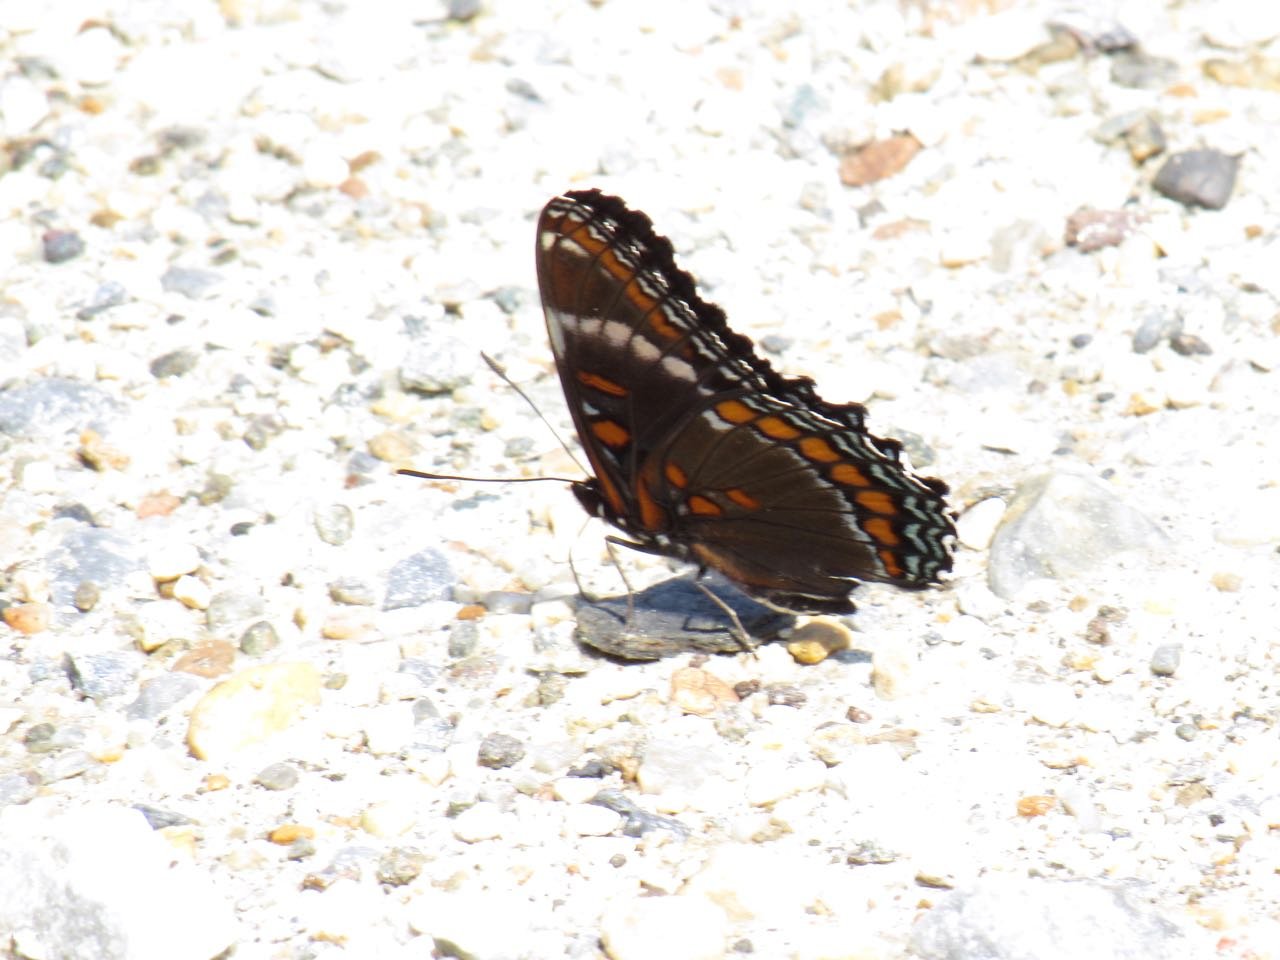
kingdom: Animalia
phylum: Arthropoda
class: Insecta
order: Lepidoptera
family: Nymphalidae
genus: Limenitis
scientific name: Limenitis
